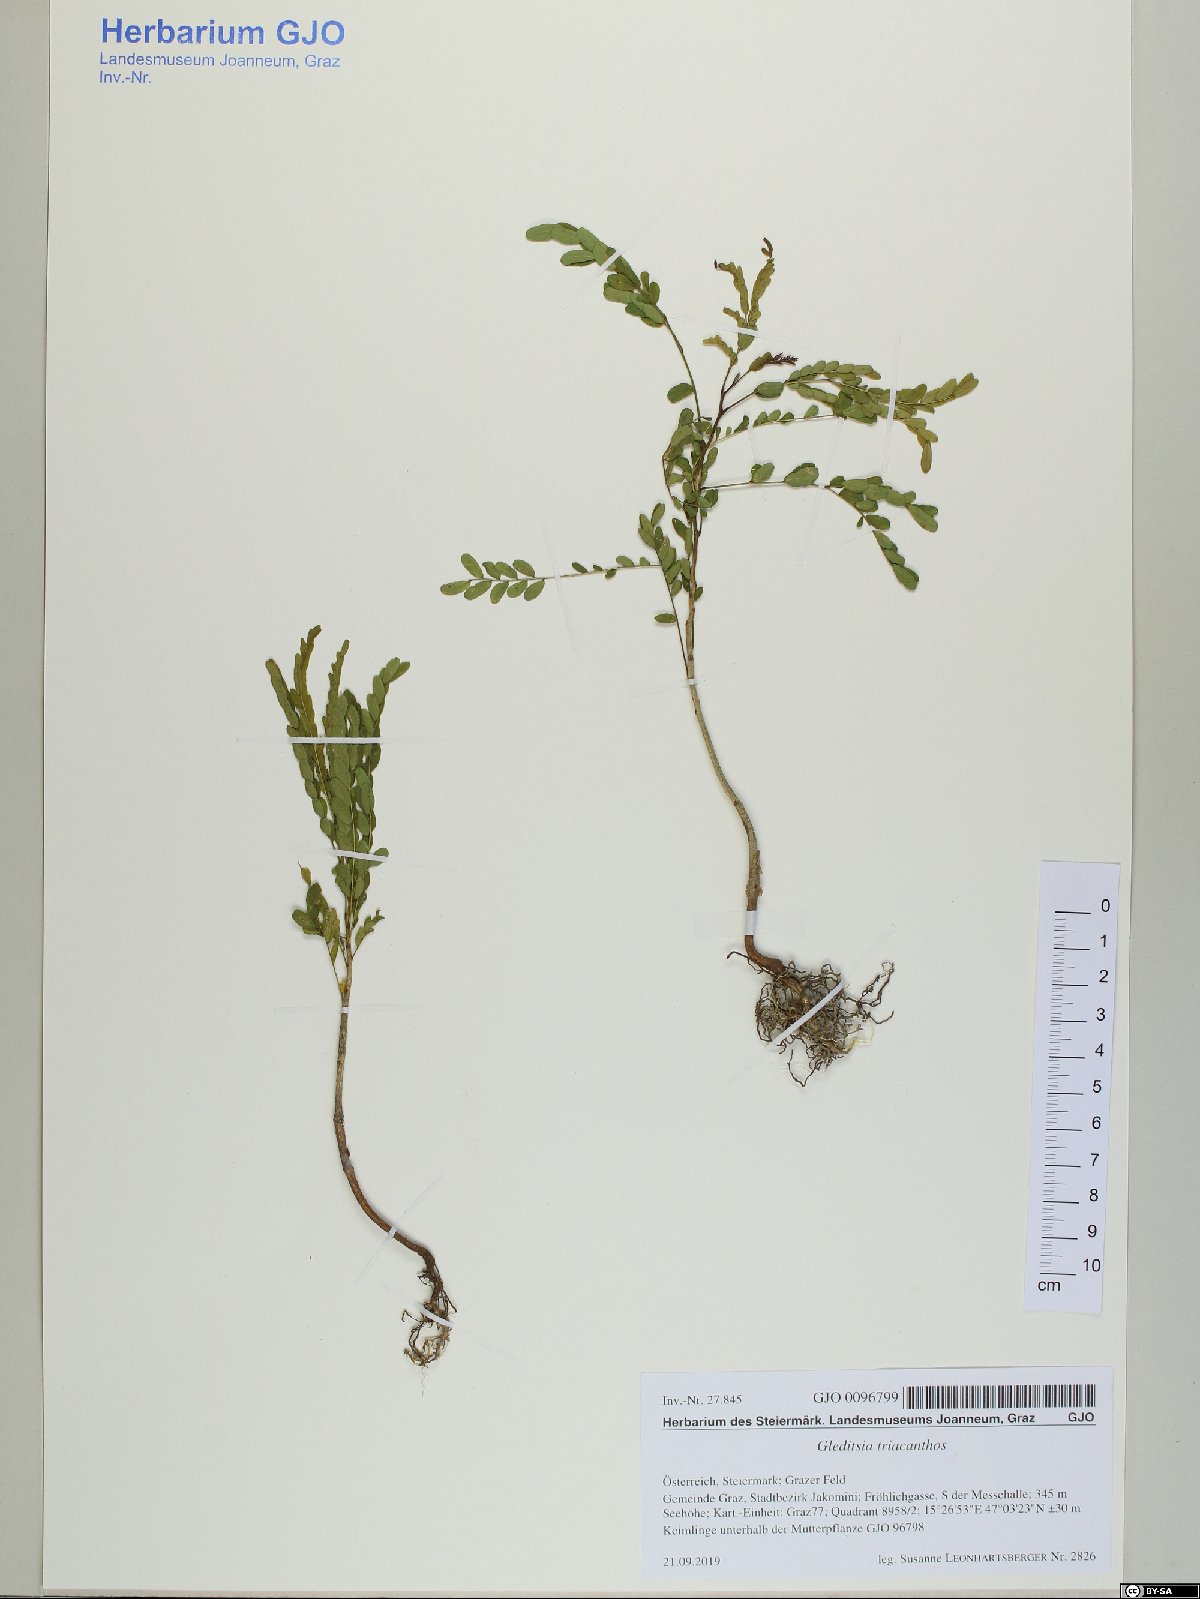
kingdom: Plantae
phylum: Tracheophyta
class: Magnoliopsida
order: Fabales
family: Fabaceae
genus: Gleditsia
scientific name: Gleditsia triacanthos
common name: Common honeylocust
